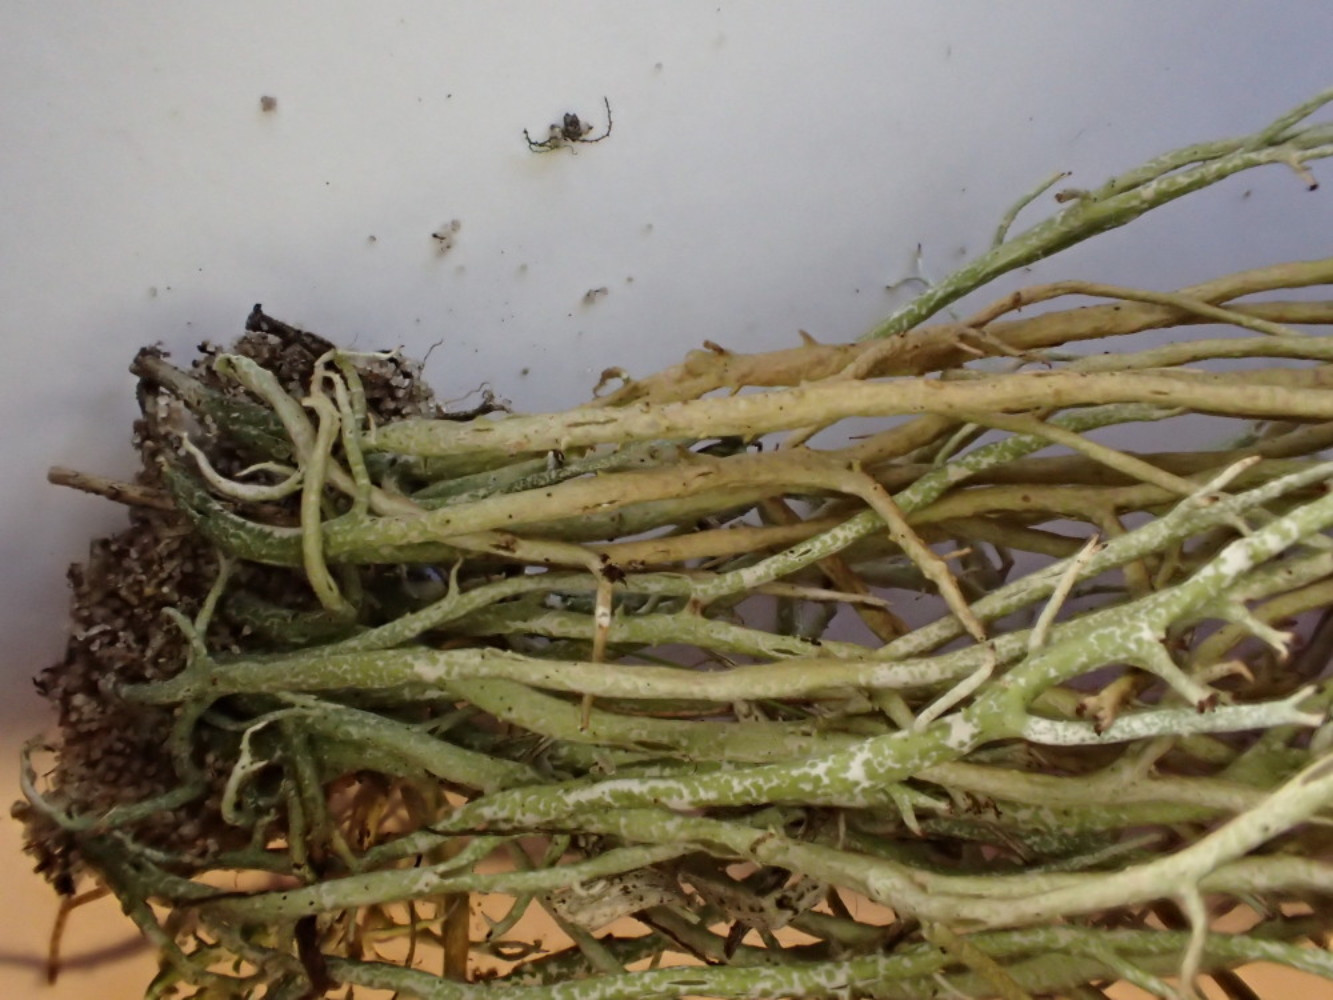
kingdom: Fungi
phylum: Ascomycota
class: Lecanoromycetes
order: Lecanorales
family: Cladoniaceae
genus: Cladonia
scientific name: Cladonia furcata
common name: kløftet bægerlav
